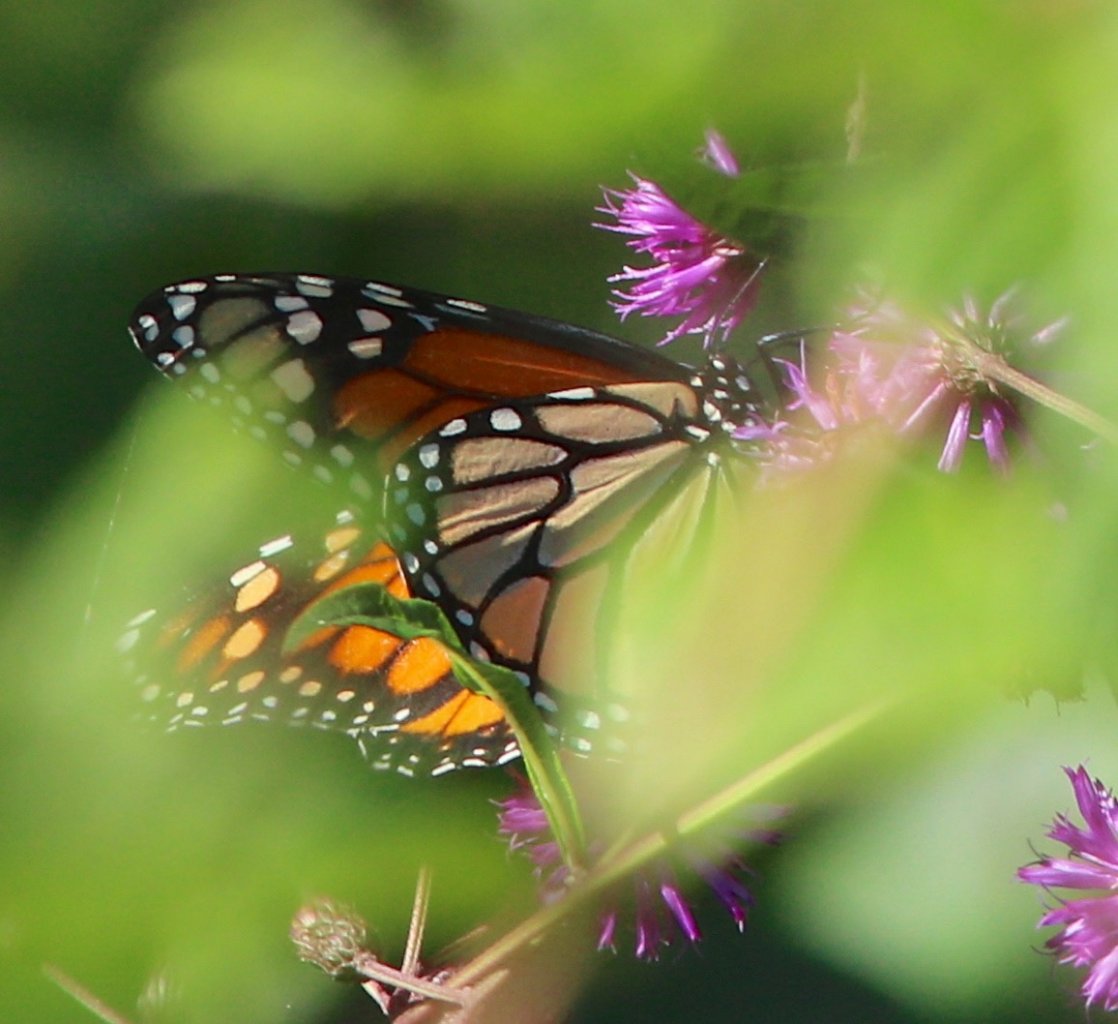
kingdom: Animalia
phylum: Arthropoda
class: Insecta
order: Lepidoptera
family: Nymphalidae
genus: Danaus
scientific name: Danaus plexippus
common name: Monarch
